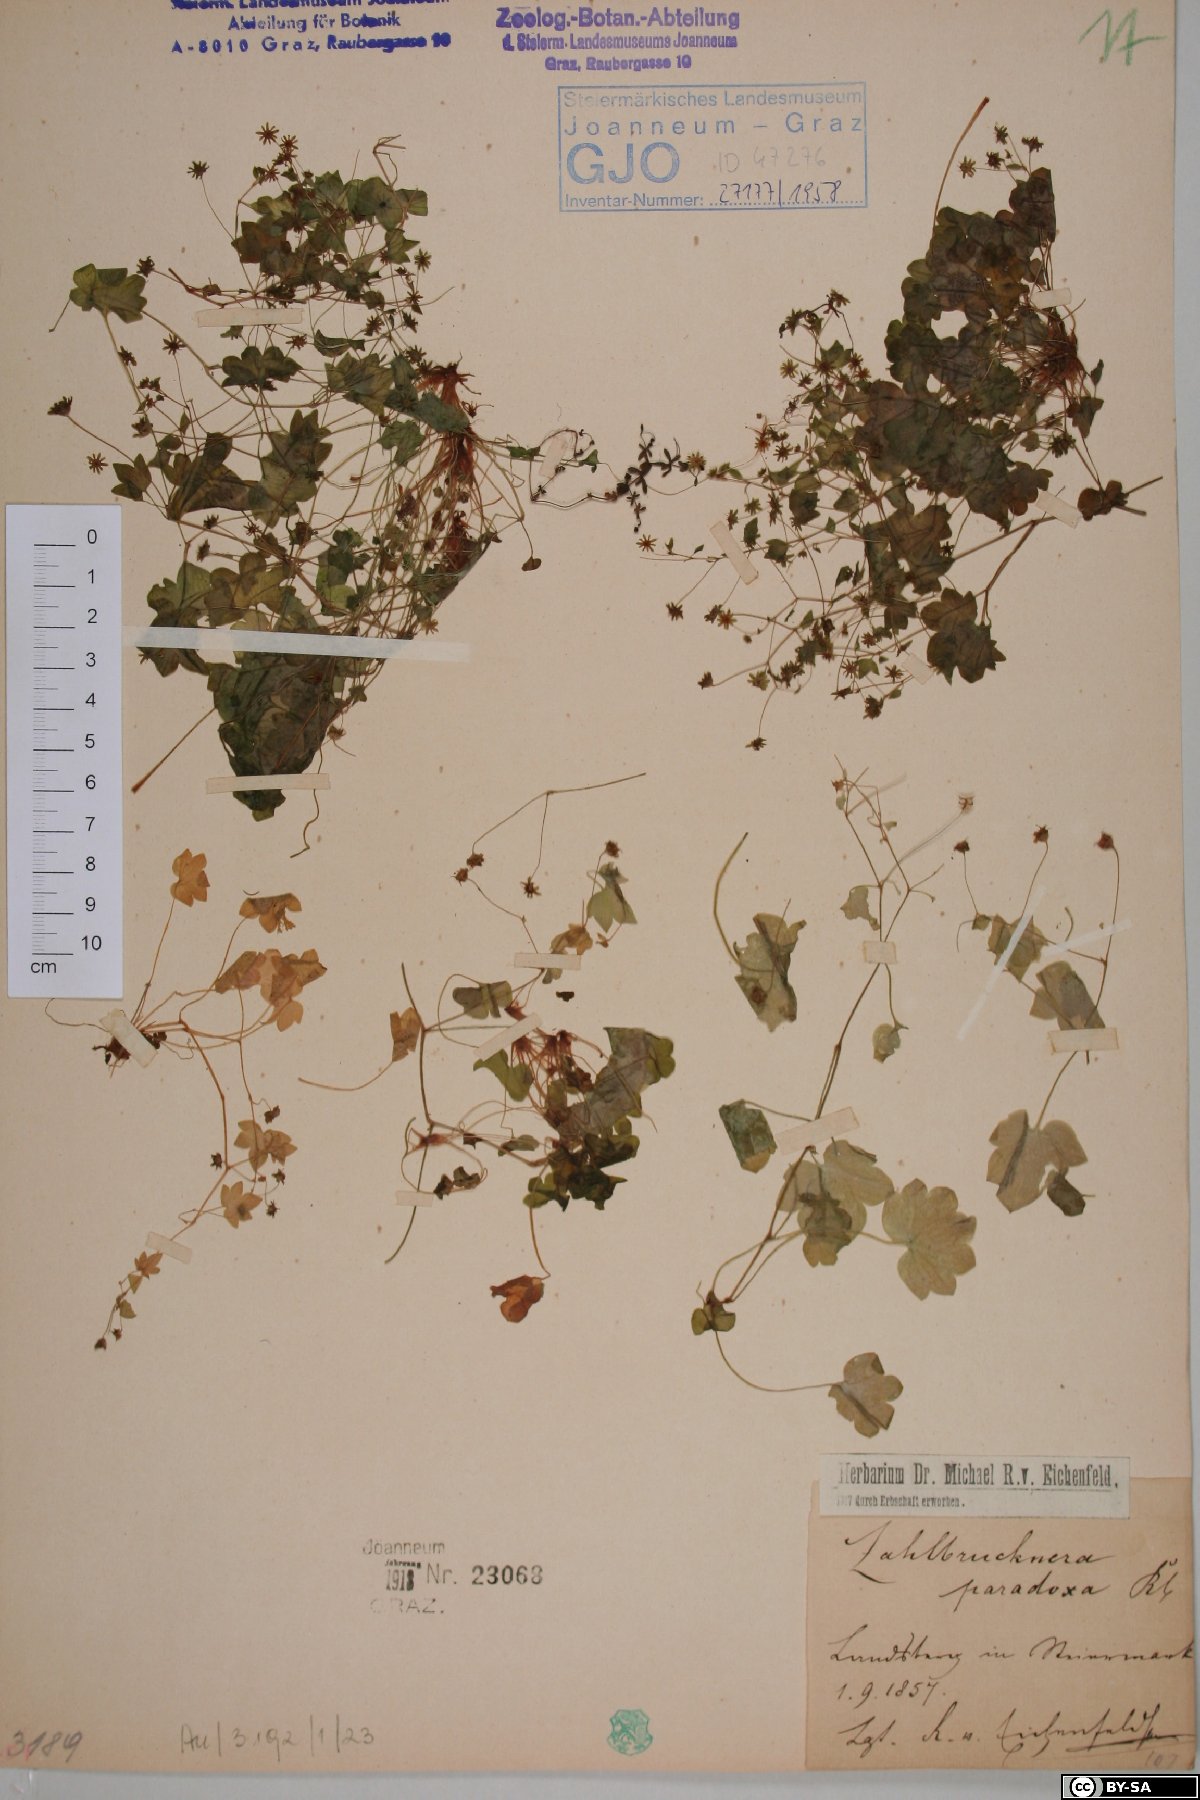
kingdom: Plantae
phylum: Tracheophyta
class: Magnoliopsida
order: Saxifragales
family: Saxifragaceae
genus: Saxifraga
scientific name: Saxifraga paradoxa
